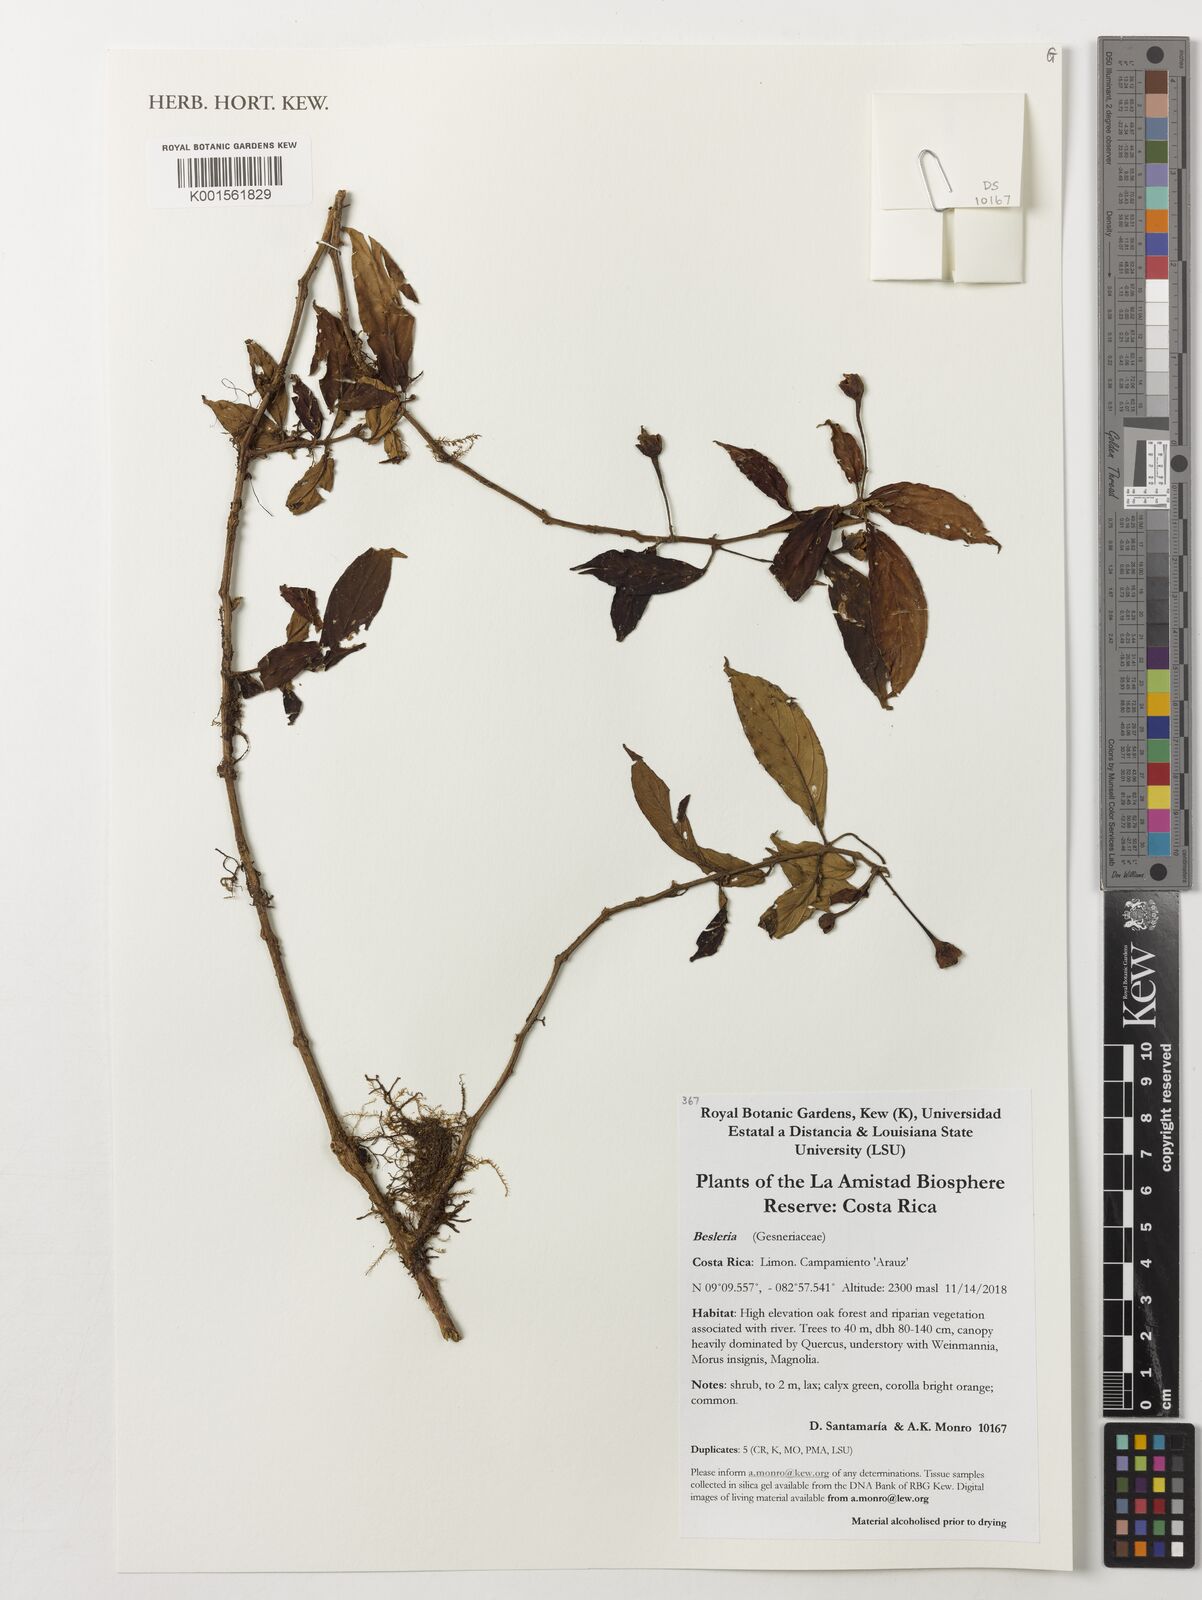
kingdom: Plantae
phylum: Tracheophyta
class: Magnoliopsida
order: Lamiales
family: Gesneriaceae
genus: Besleria
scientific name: Besleria
